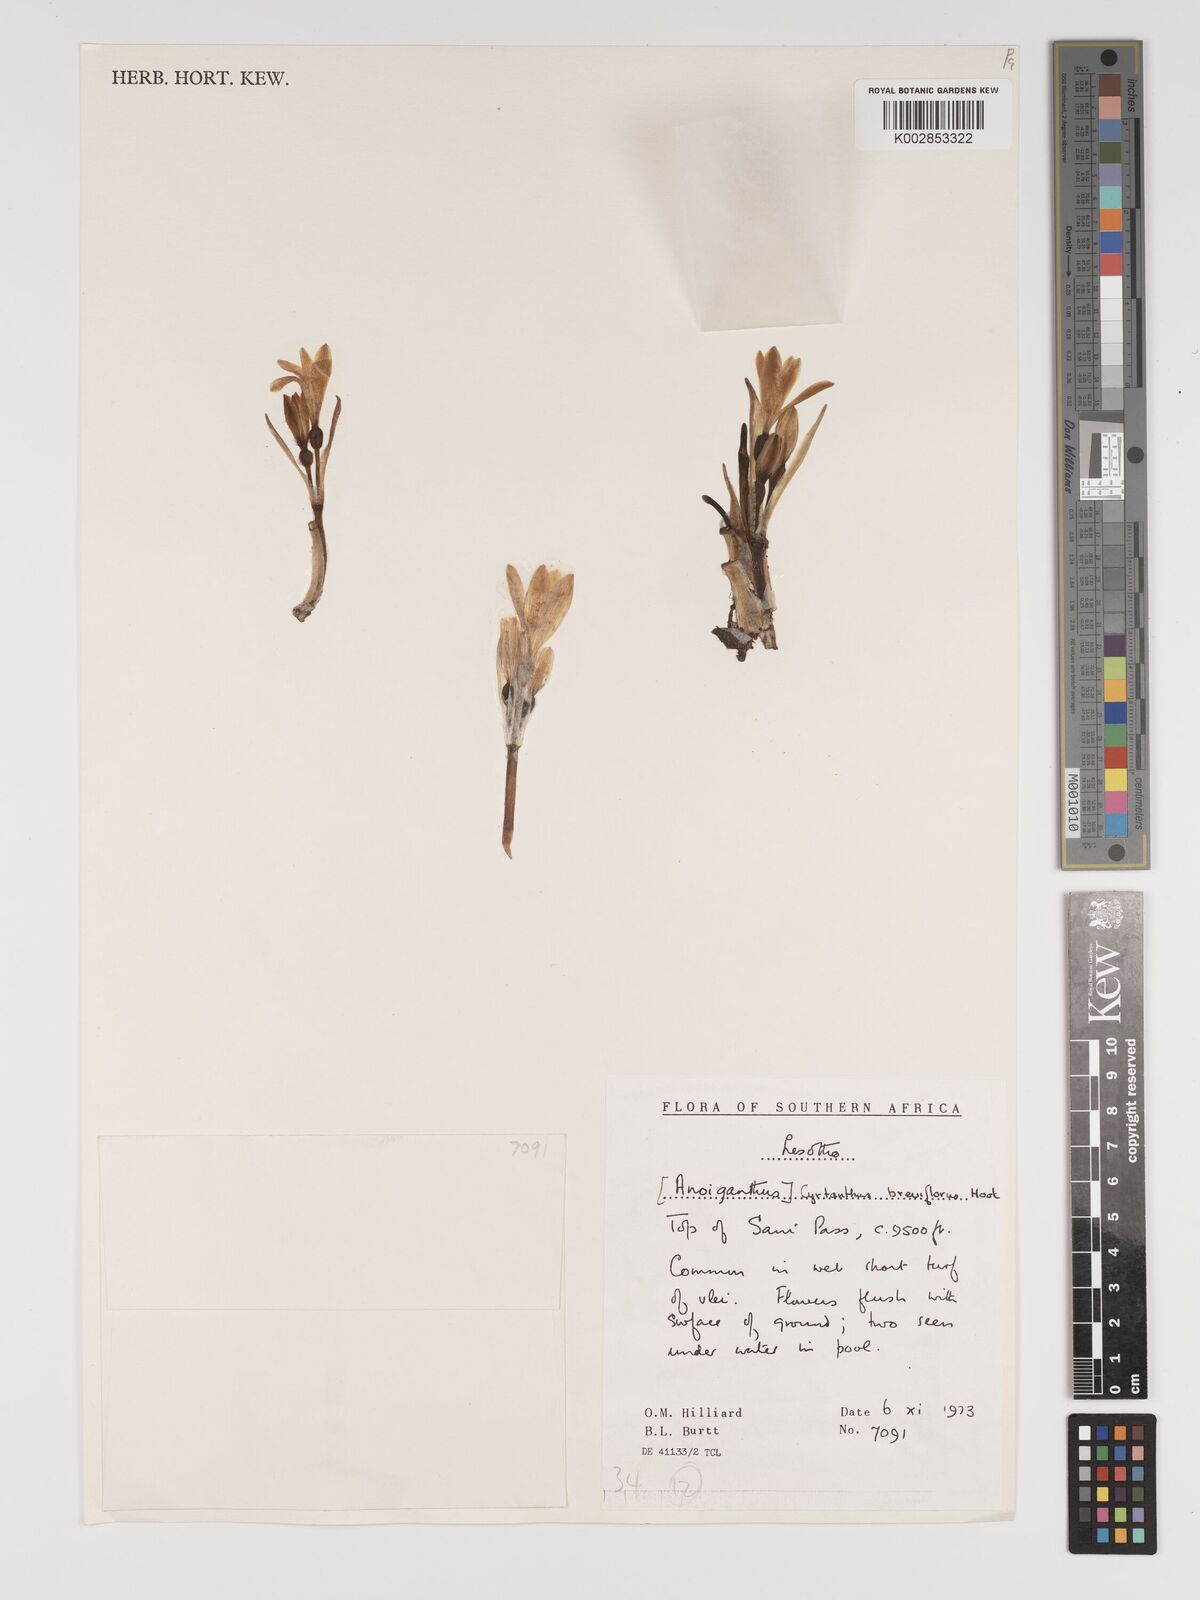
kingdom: Plantae
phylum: Tracheophyta
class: Liliopsida
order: Asparagales
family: Amaryllidaceae
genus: Cyrtanthus
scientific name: Cyrtanthus breviflorus
